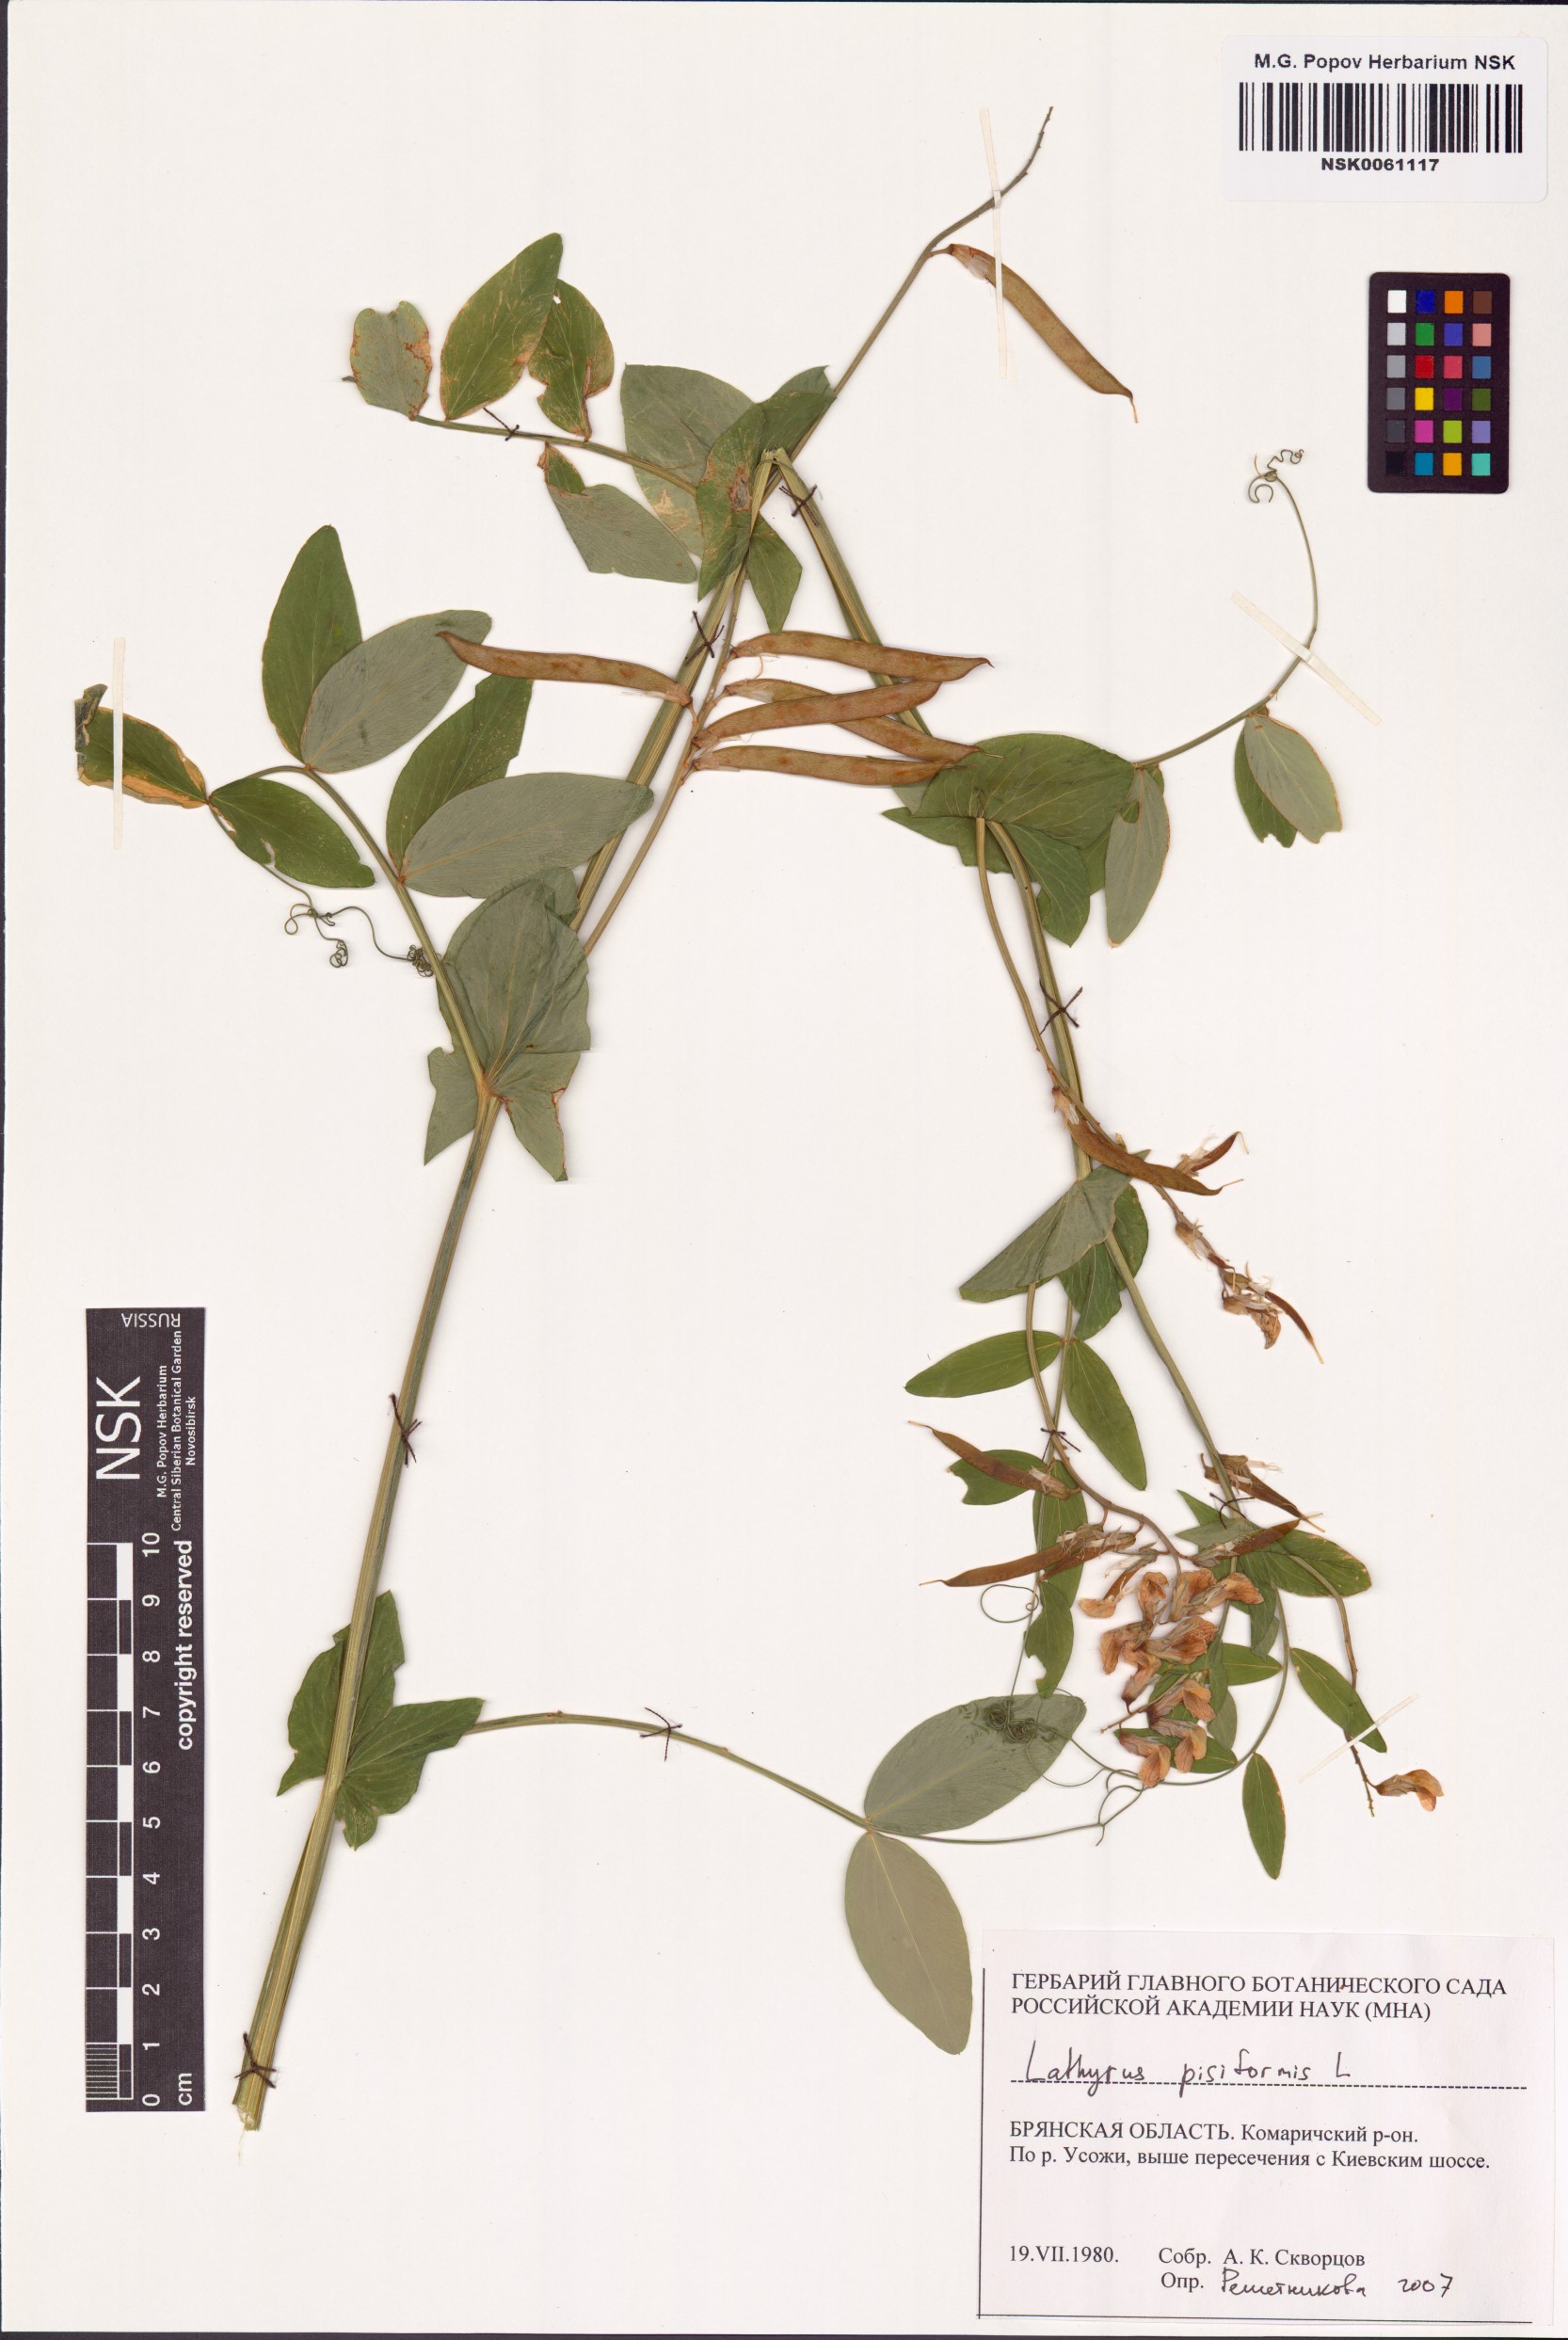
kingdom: Plantae
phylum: Tracheophyta
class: Magnoliopsida
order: Fabales
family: Fabaceae
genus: Lathyrus
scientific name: Lathyrus pisiformis
